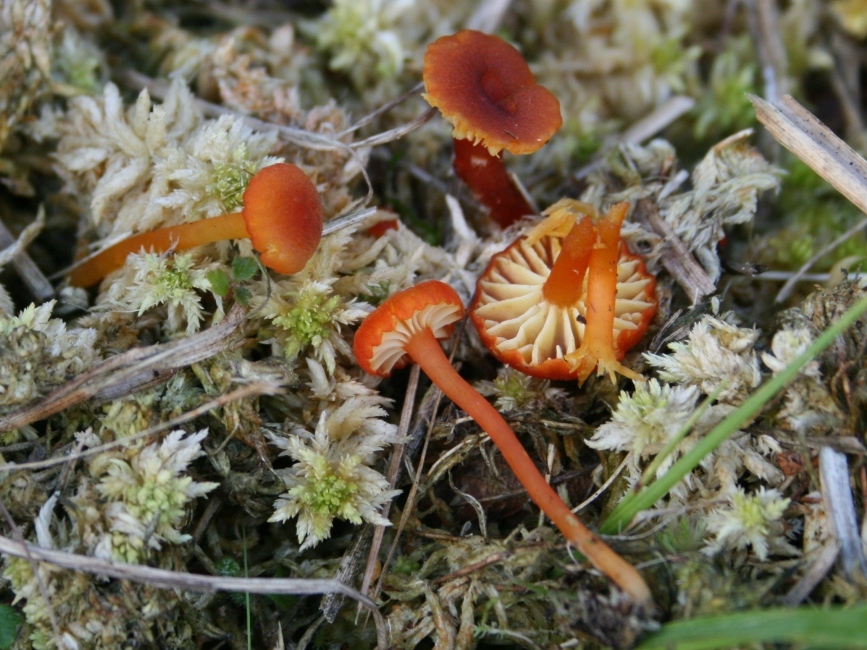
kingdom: Fungi
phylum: Basidiomycota
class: Agaricomycetes
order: Agaricales
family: Hygrophoraceae
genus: Hygrocybe
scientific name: Hygrocybe coccineocrenata
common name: tørvemos-vokshat
